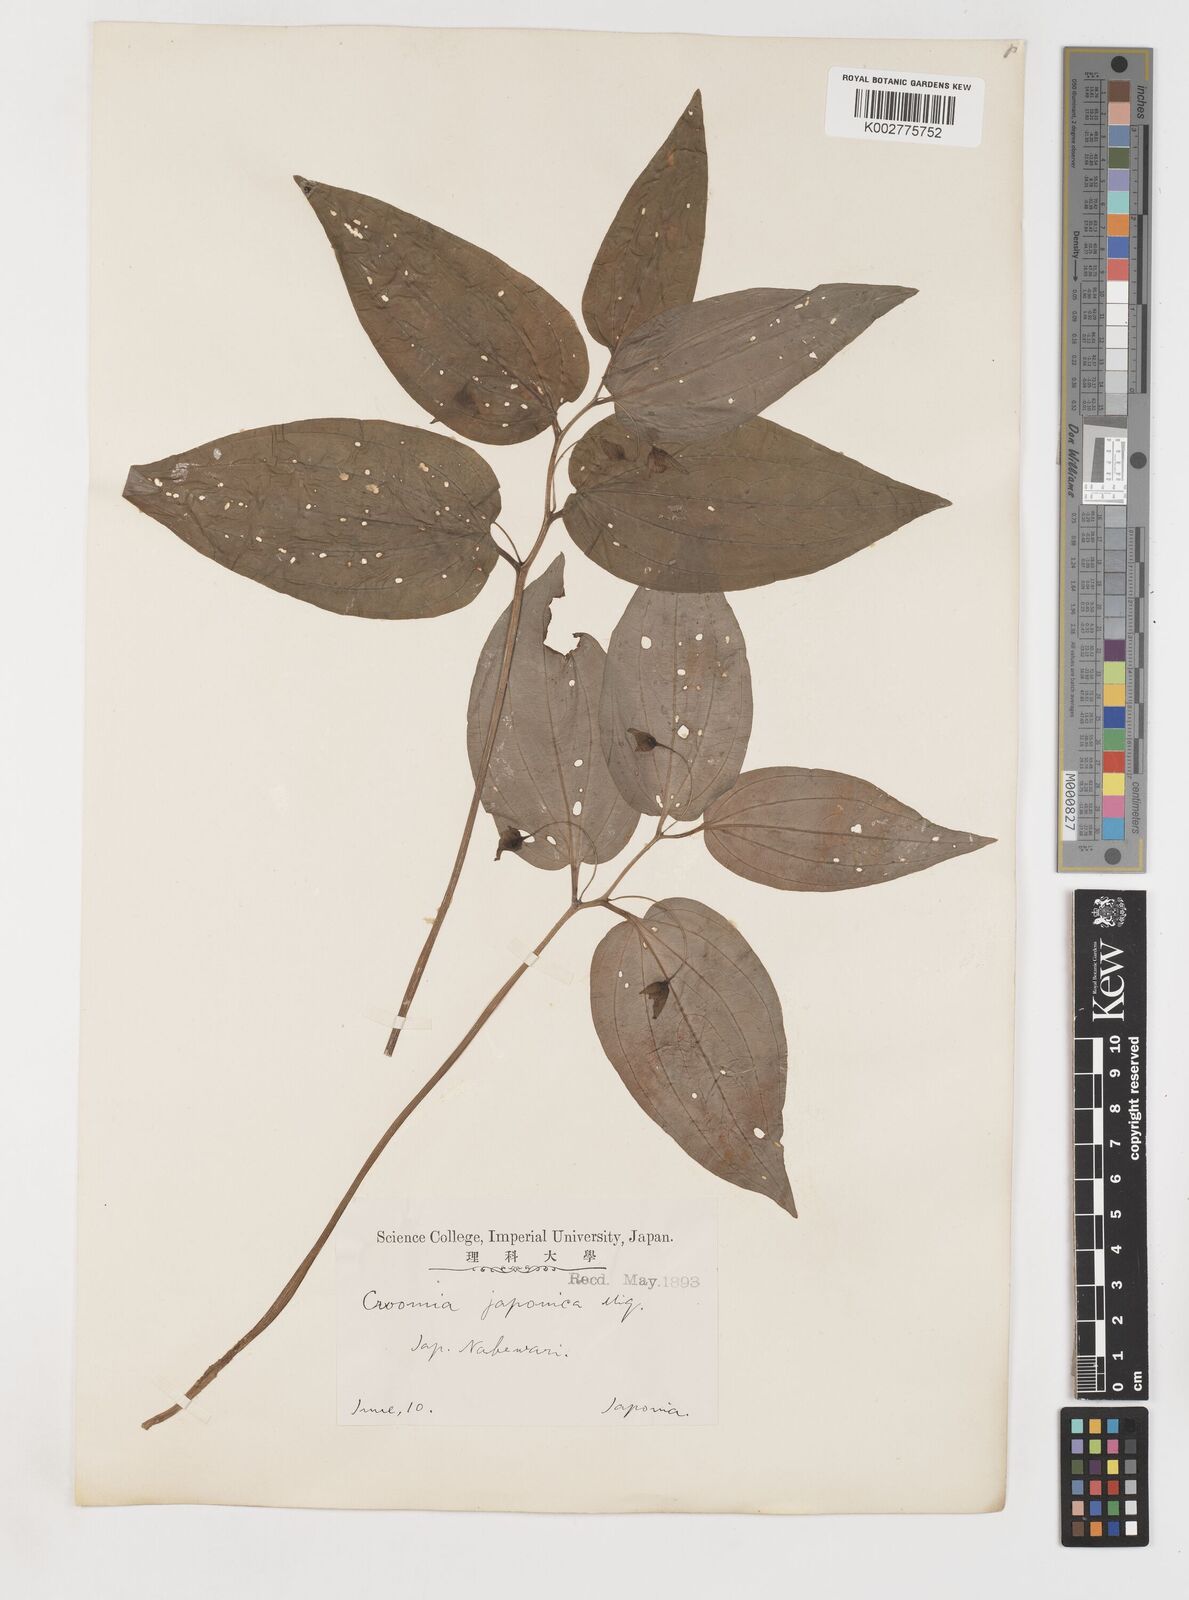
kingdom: Plantae
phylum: Tracheophyta
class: Liliopsida
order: Pandanales
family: Stemonaceae
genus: Croomia
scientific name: Croomia japonica
